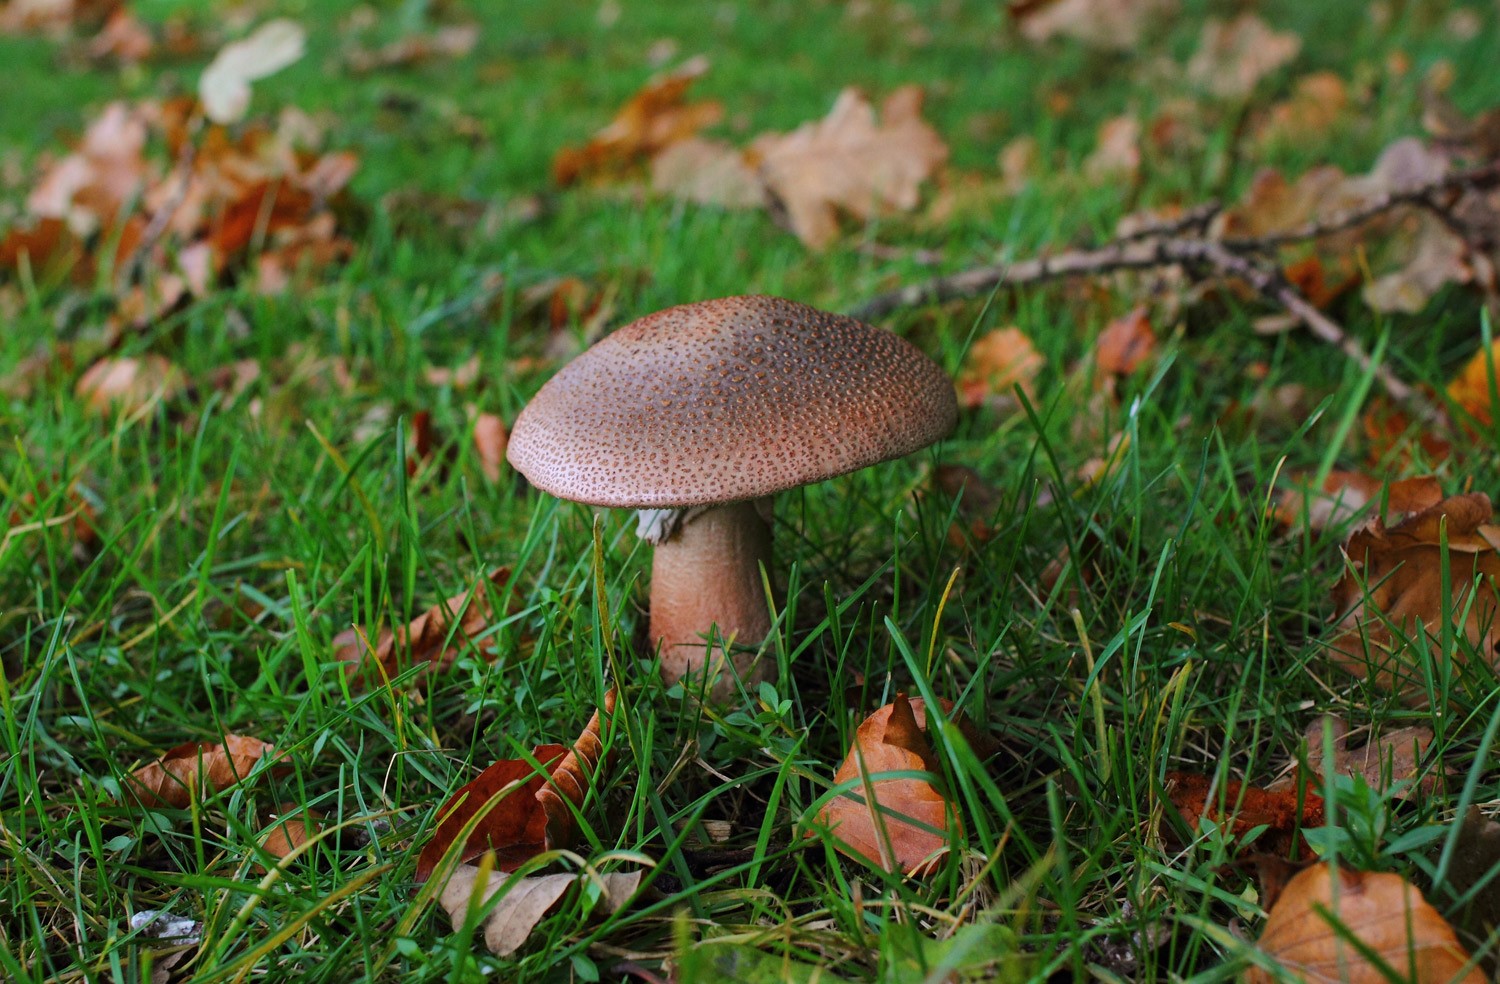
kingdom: Fungi
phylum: Basidiomycota
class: Agaricomycetes
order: Agaricales
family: Amanitaceae
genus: Amanita
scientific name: Amanita rubescens
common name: rødmende fluesvamp
